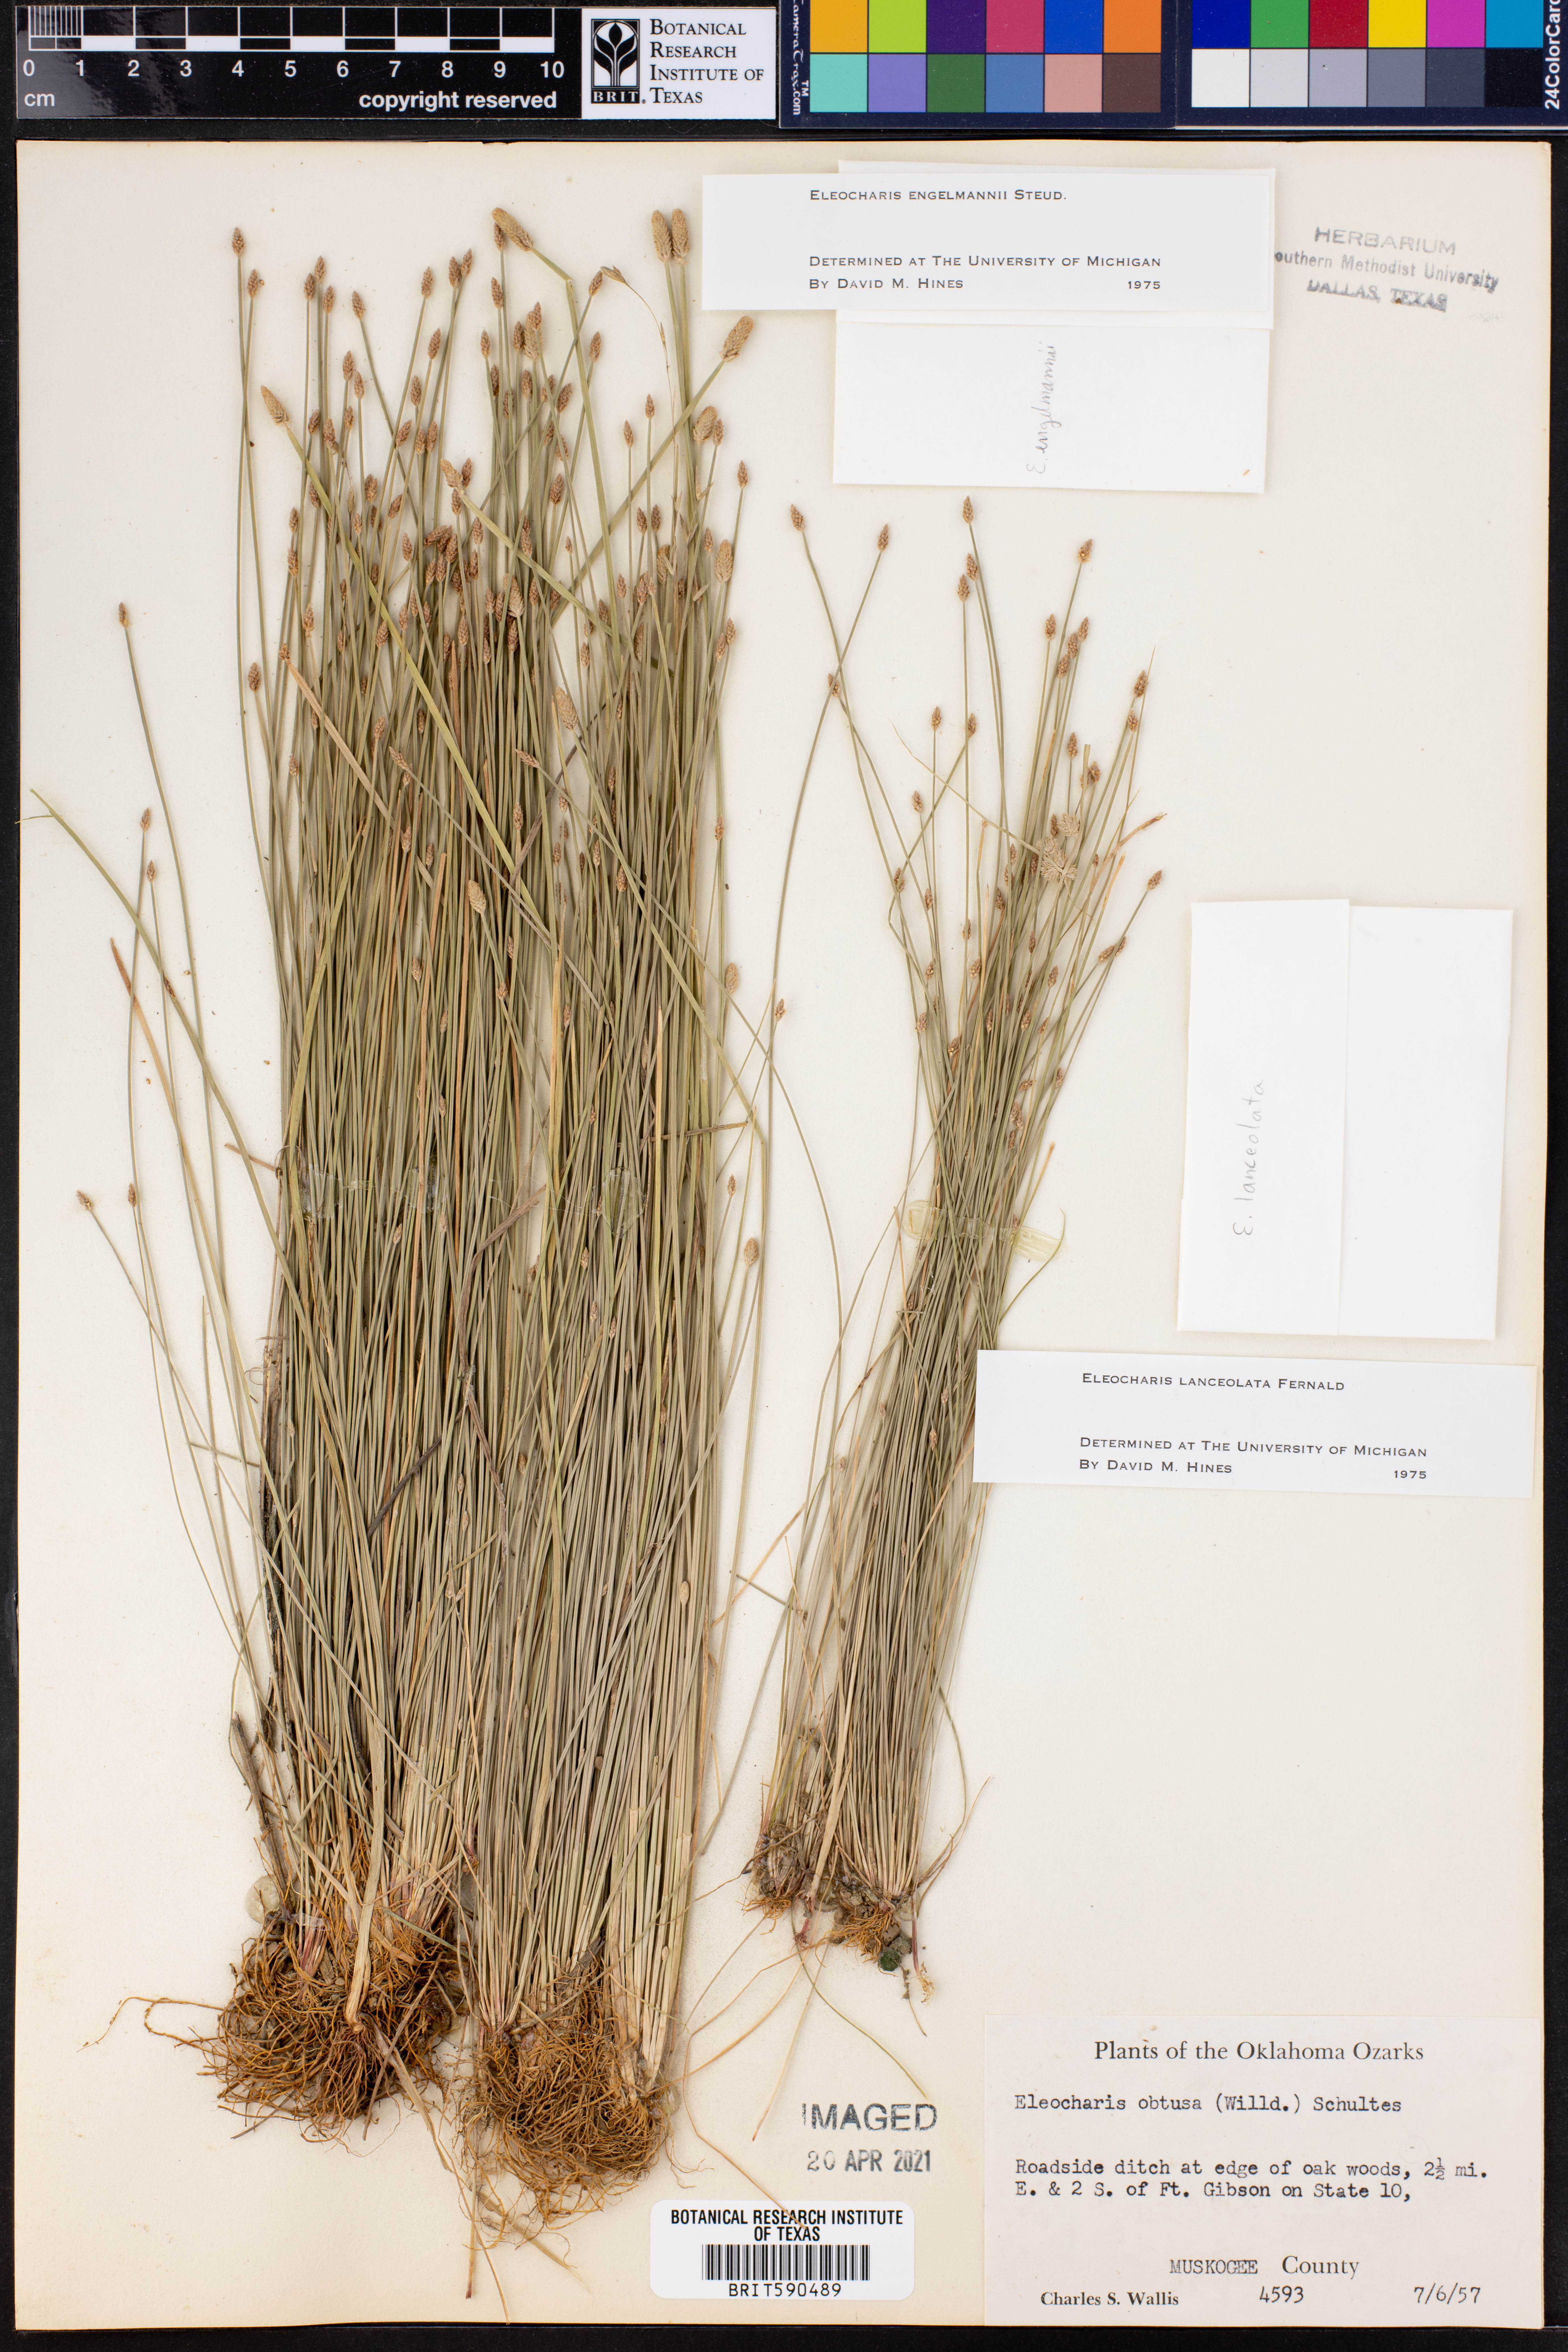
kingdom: Plantae
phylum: Tracheophyta
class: Liliopsida
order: Poales
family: Cyperaceae
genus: Eleocharis
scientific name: Eleocharis lanceolata
